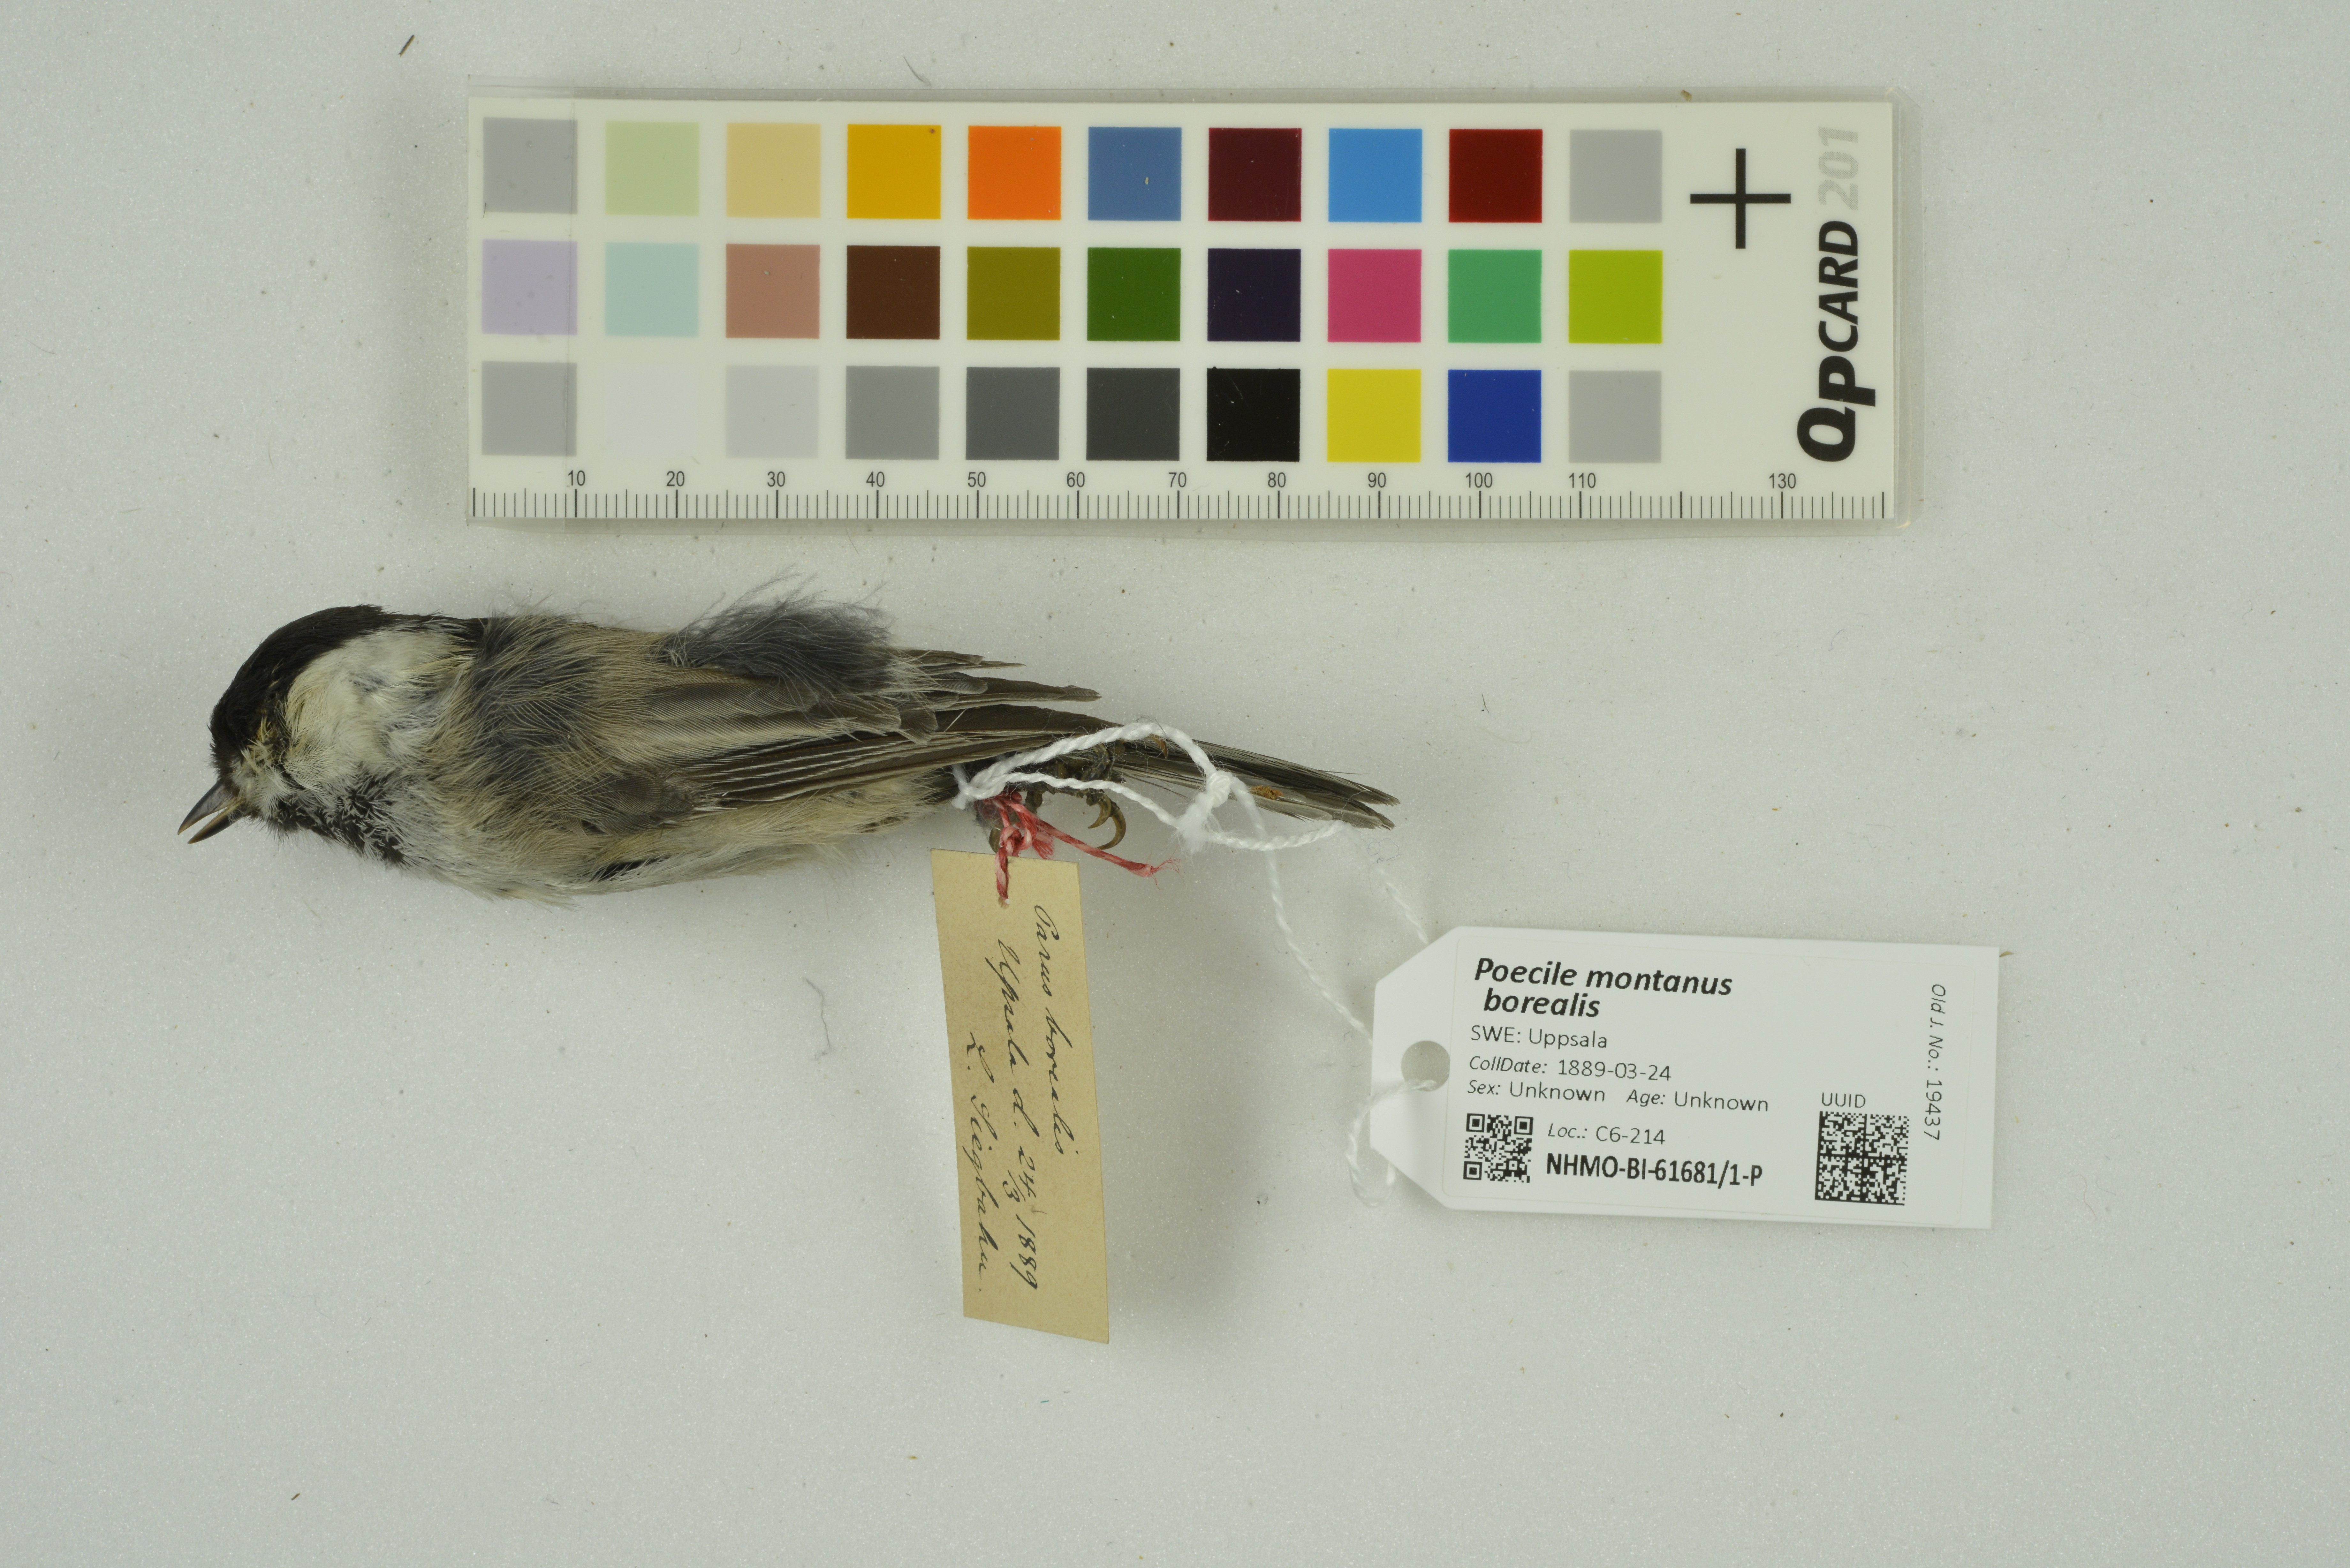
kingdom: Animalia
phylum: Chordata
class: Aves
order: Passeriformes
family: Paridae
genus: Poecile
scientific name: Poecile montanus
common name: Willow tit
